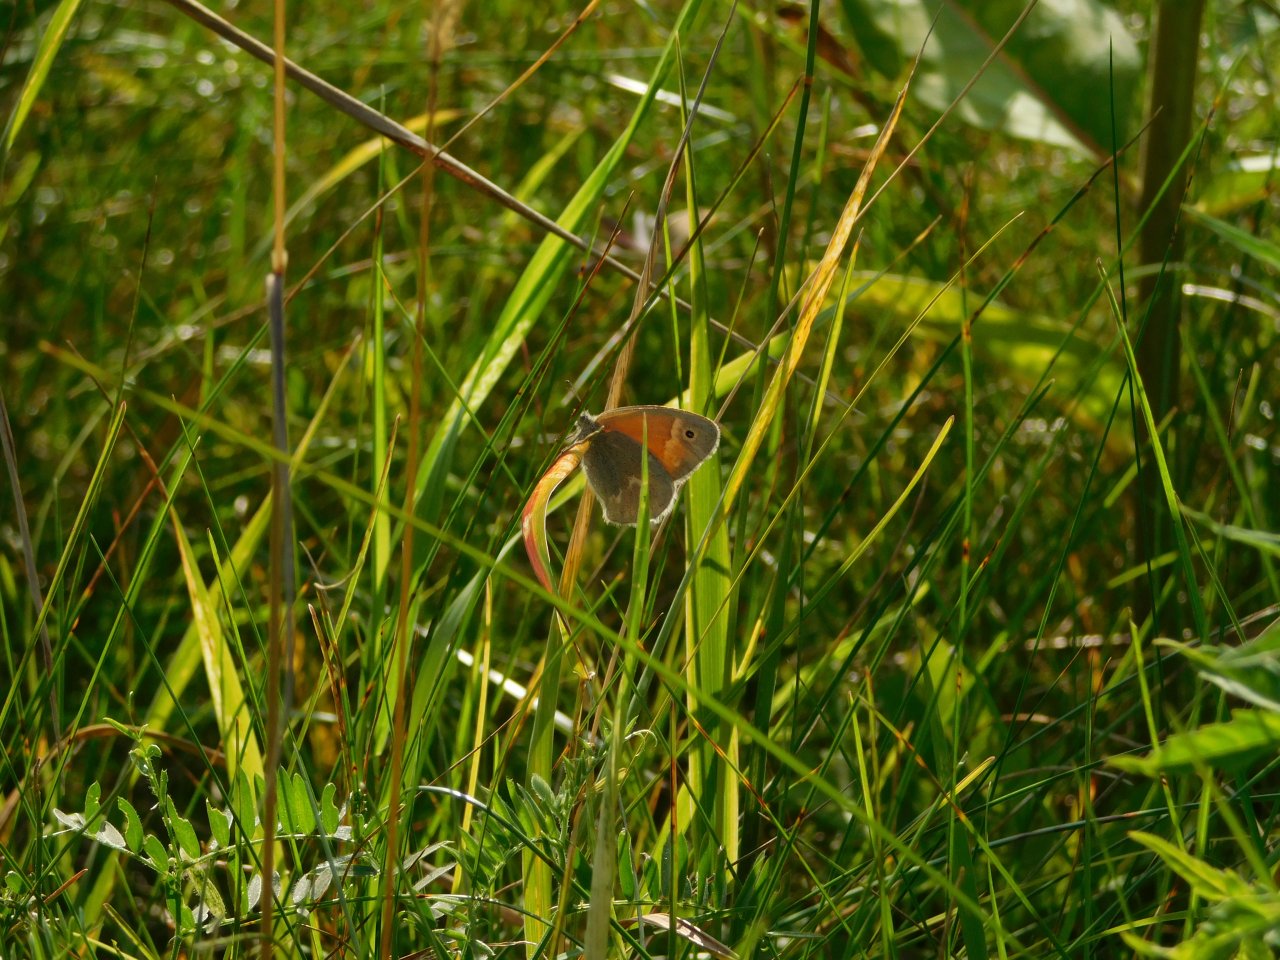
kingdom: Animalia
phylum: Arthropoda
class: Insecta
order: Lepidoptera
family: Nymphalidae
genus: Coenonympha
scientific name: Coenonympha tullia
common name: Large Heath
